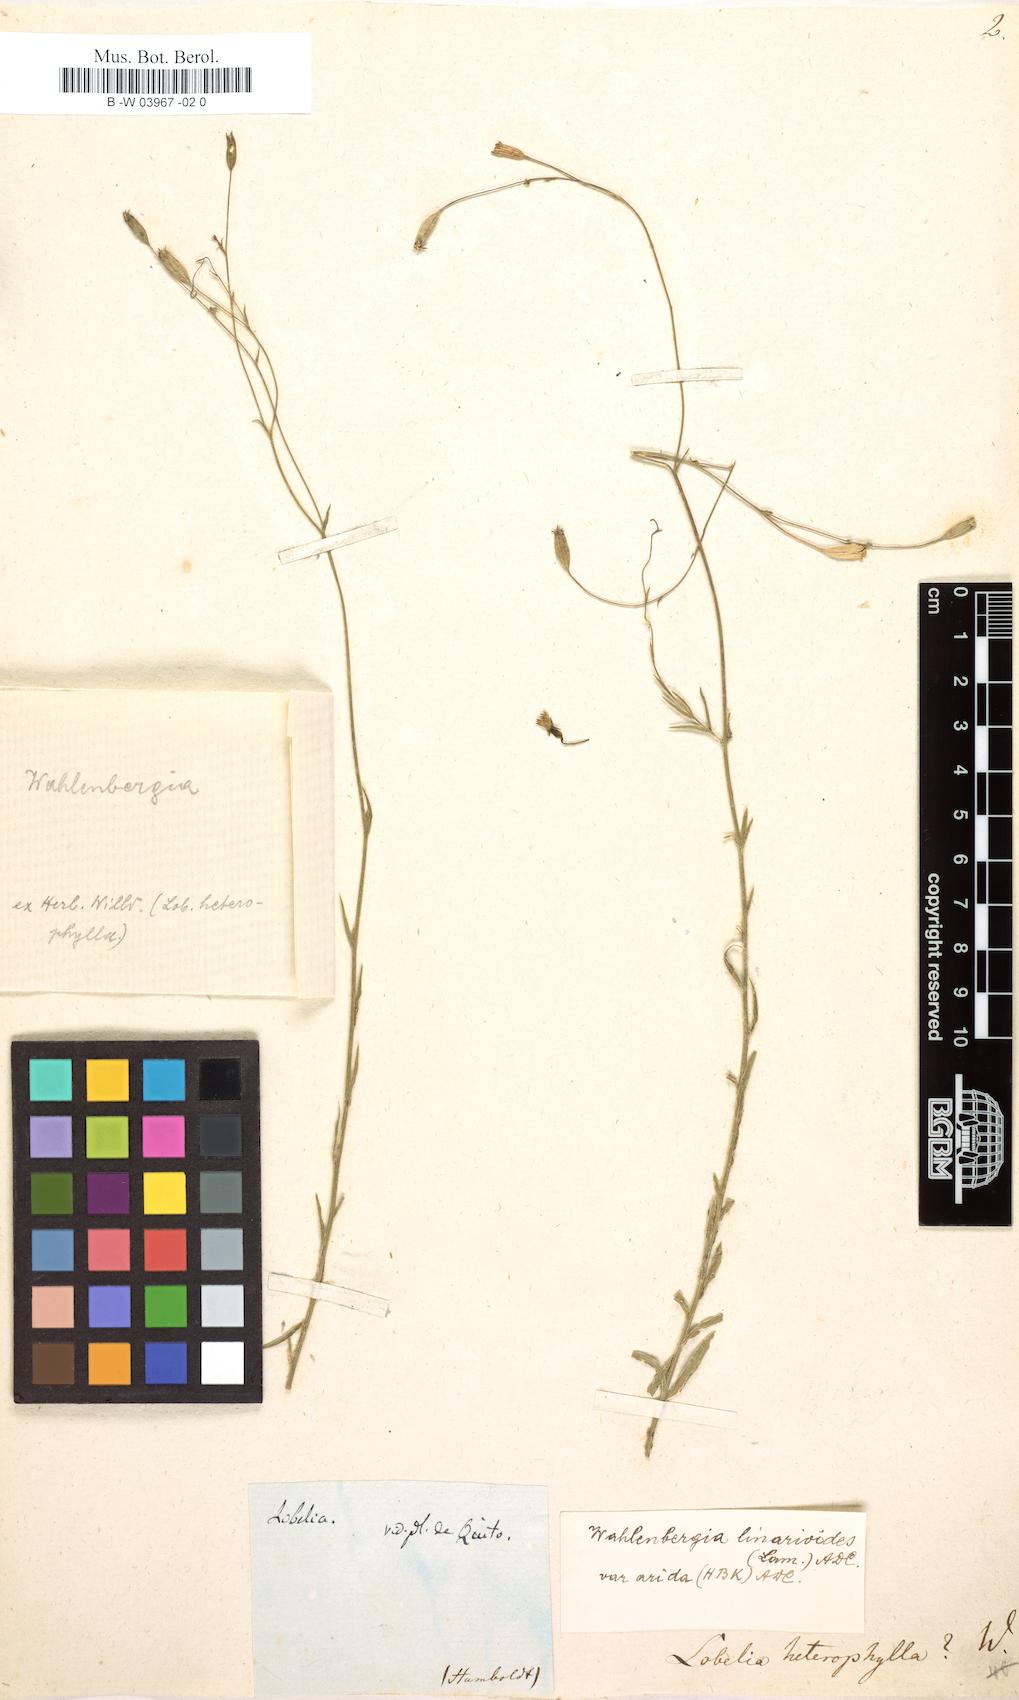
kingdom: Plantae
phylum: Tracheophyta
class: Magnoliopsida
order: Asterales
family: Campanulaceae
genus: Lobelia
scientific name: Lobelia heterophylla
